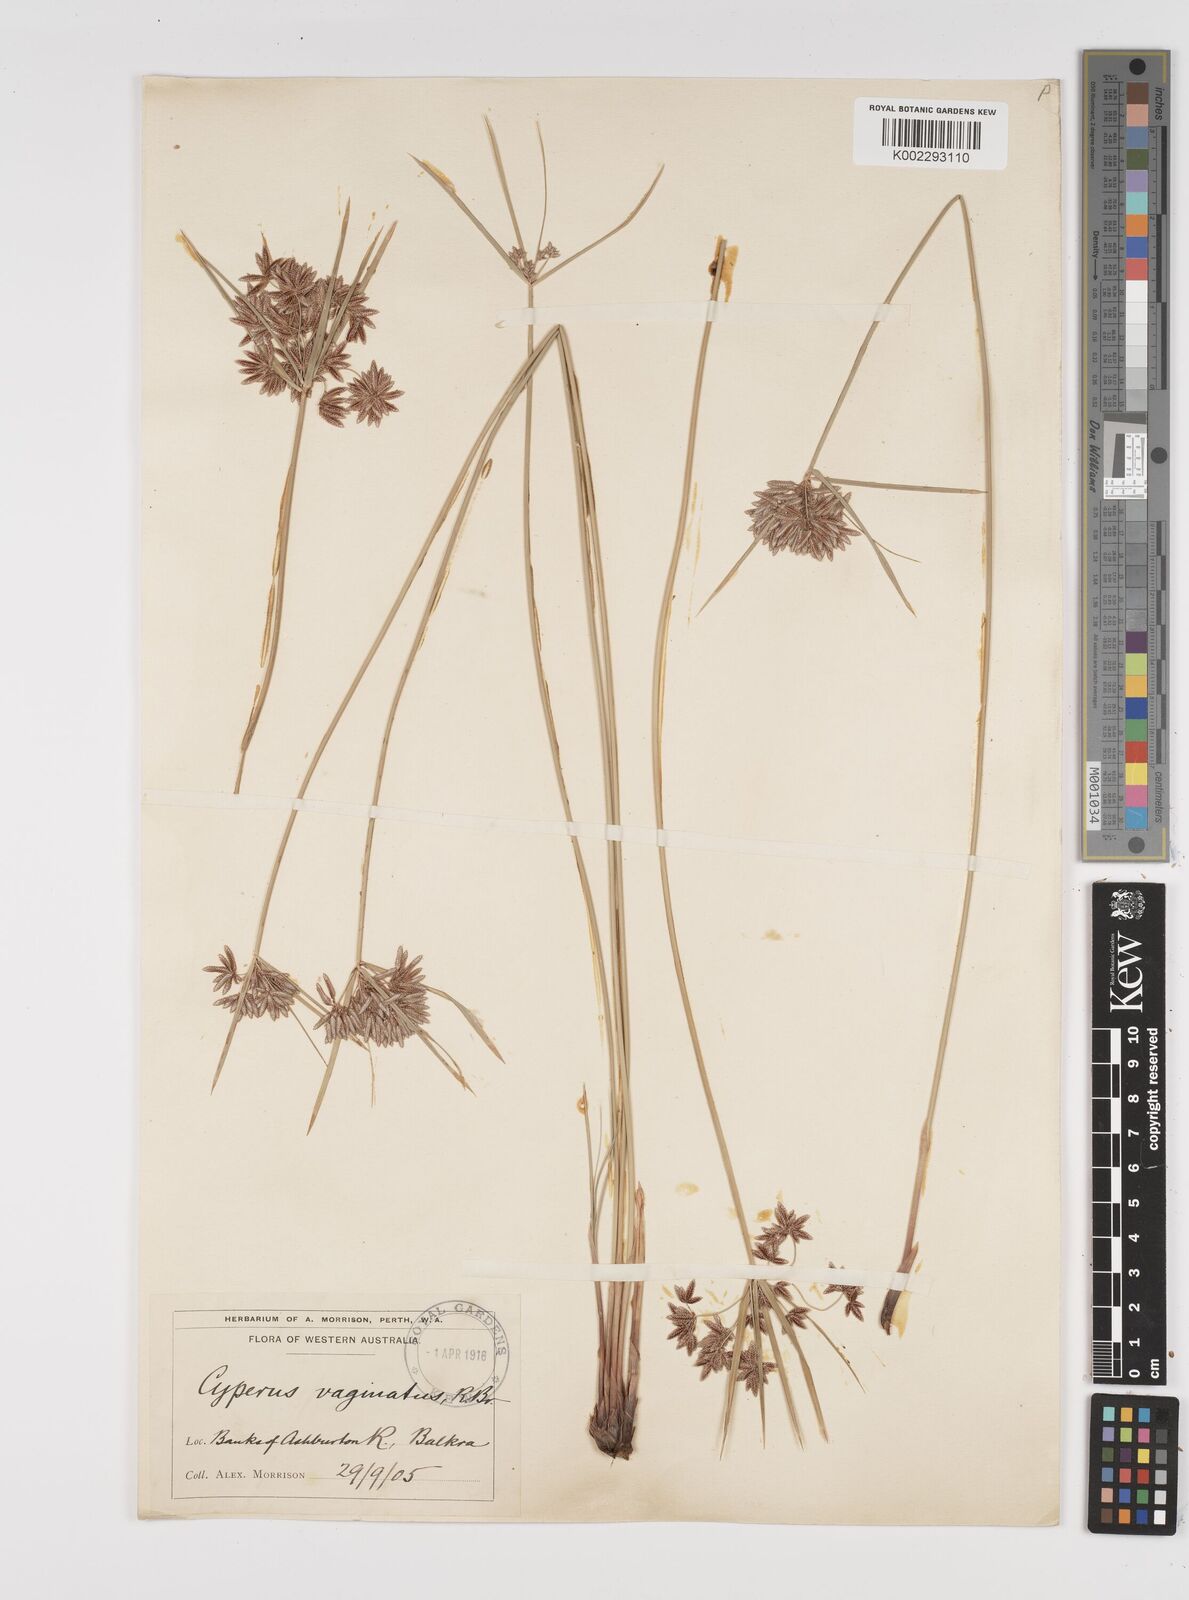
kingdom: Plantae
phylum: Tracheophyta
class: Liliopsida
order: Poales
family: Cyperaceae
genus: Cyperus
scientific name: Cyperus vaginatus
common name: Stiff-leaved flat-sedge
